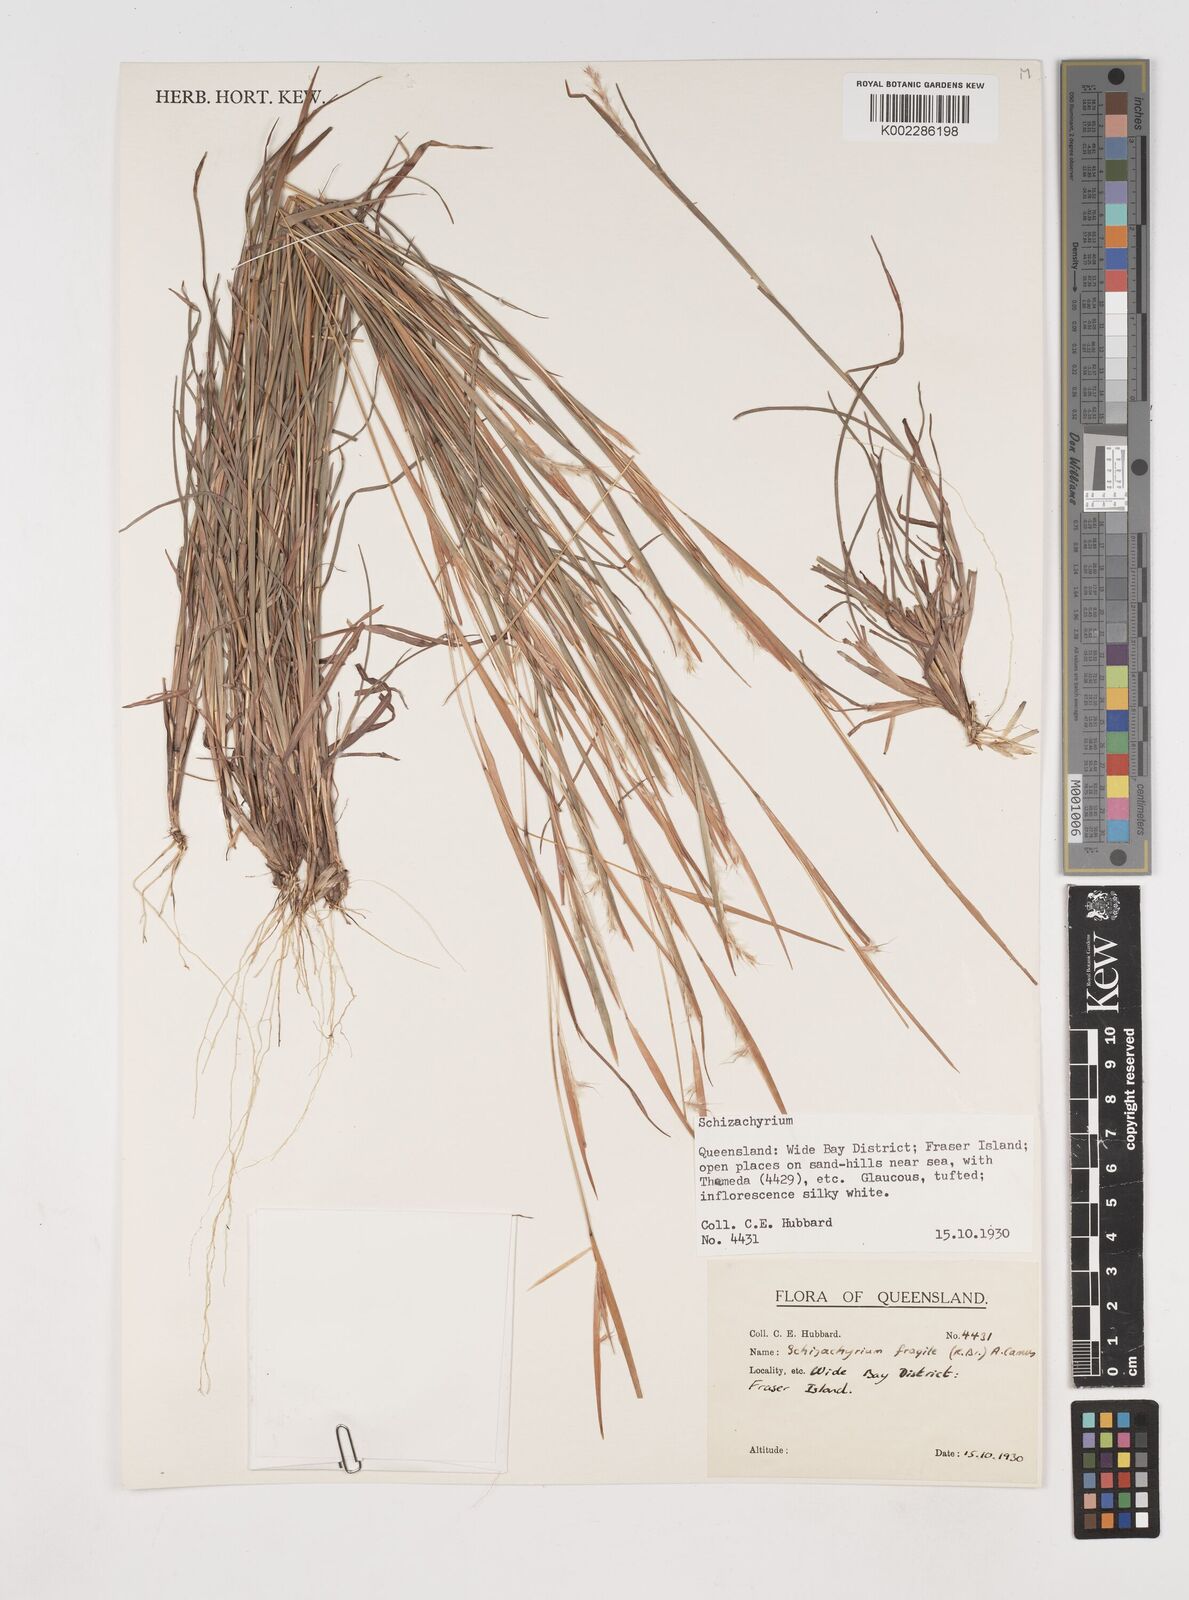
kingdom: Plantae
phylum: Tracheophyta
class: Liliopsida
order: Poales
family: Poaceae
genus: Schizachyrium
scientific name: Schizachyrium fragile
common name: Red spathe grass
